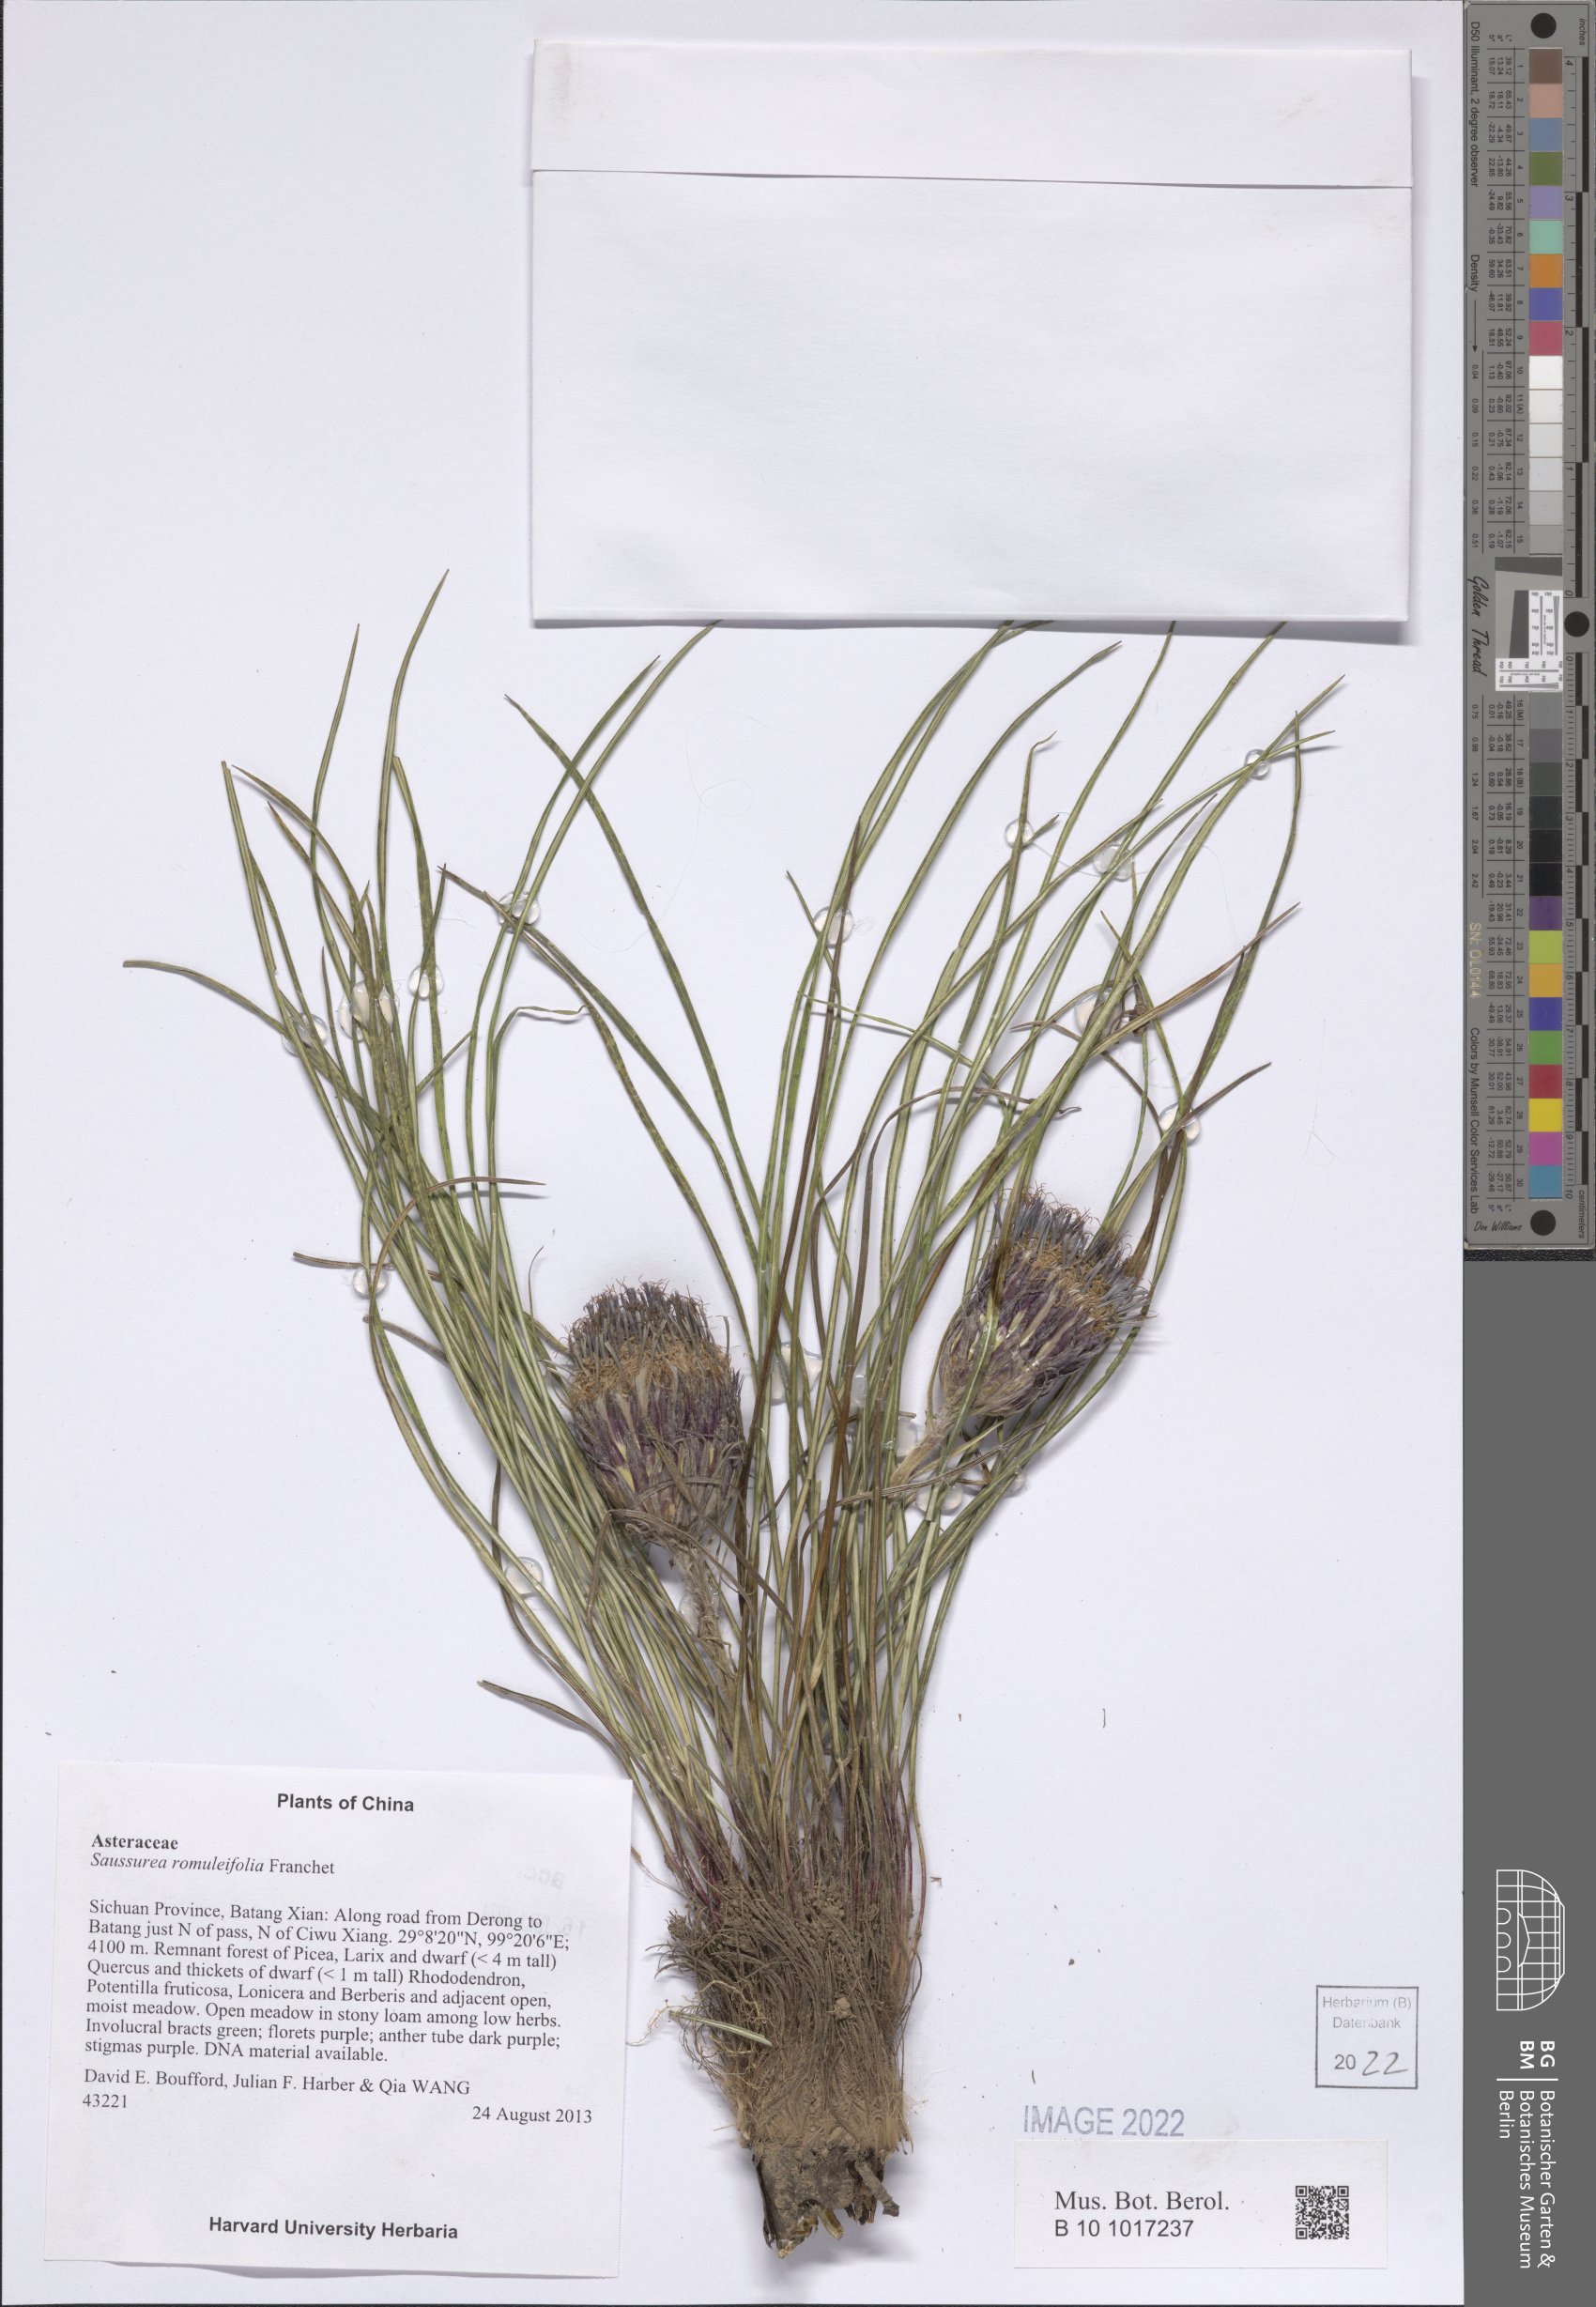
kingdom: Plantae
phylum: Tracheophyta
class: Magnoliopsida
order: Asterales
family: Asteraceae
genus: Saussurea
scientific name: Saussurea romuleifolia
